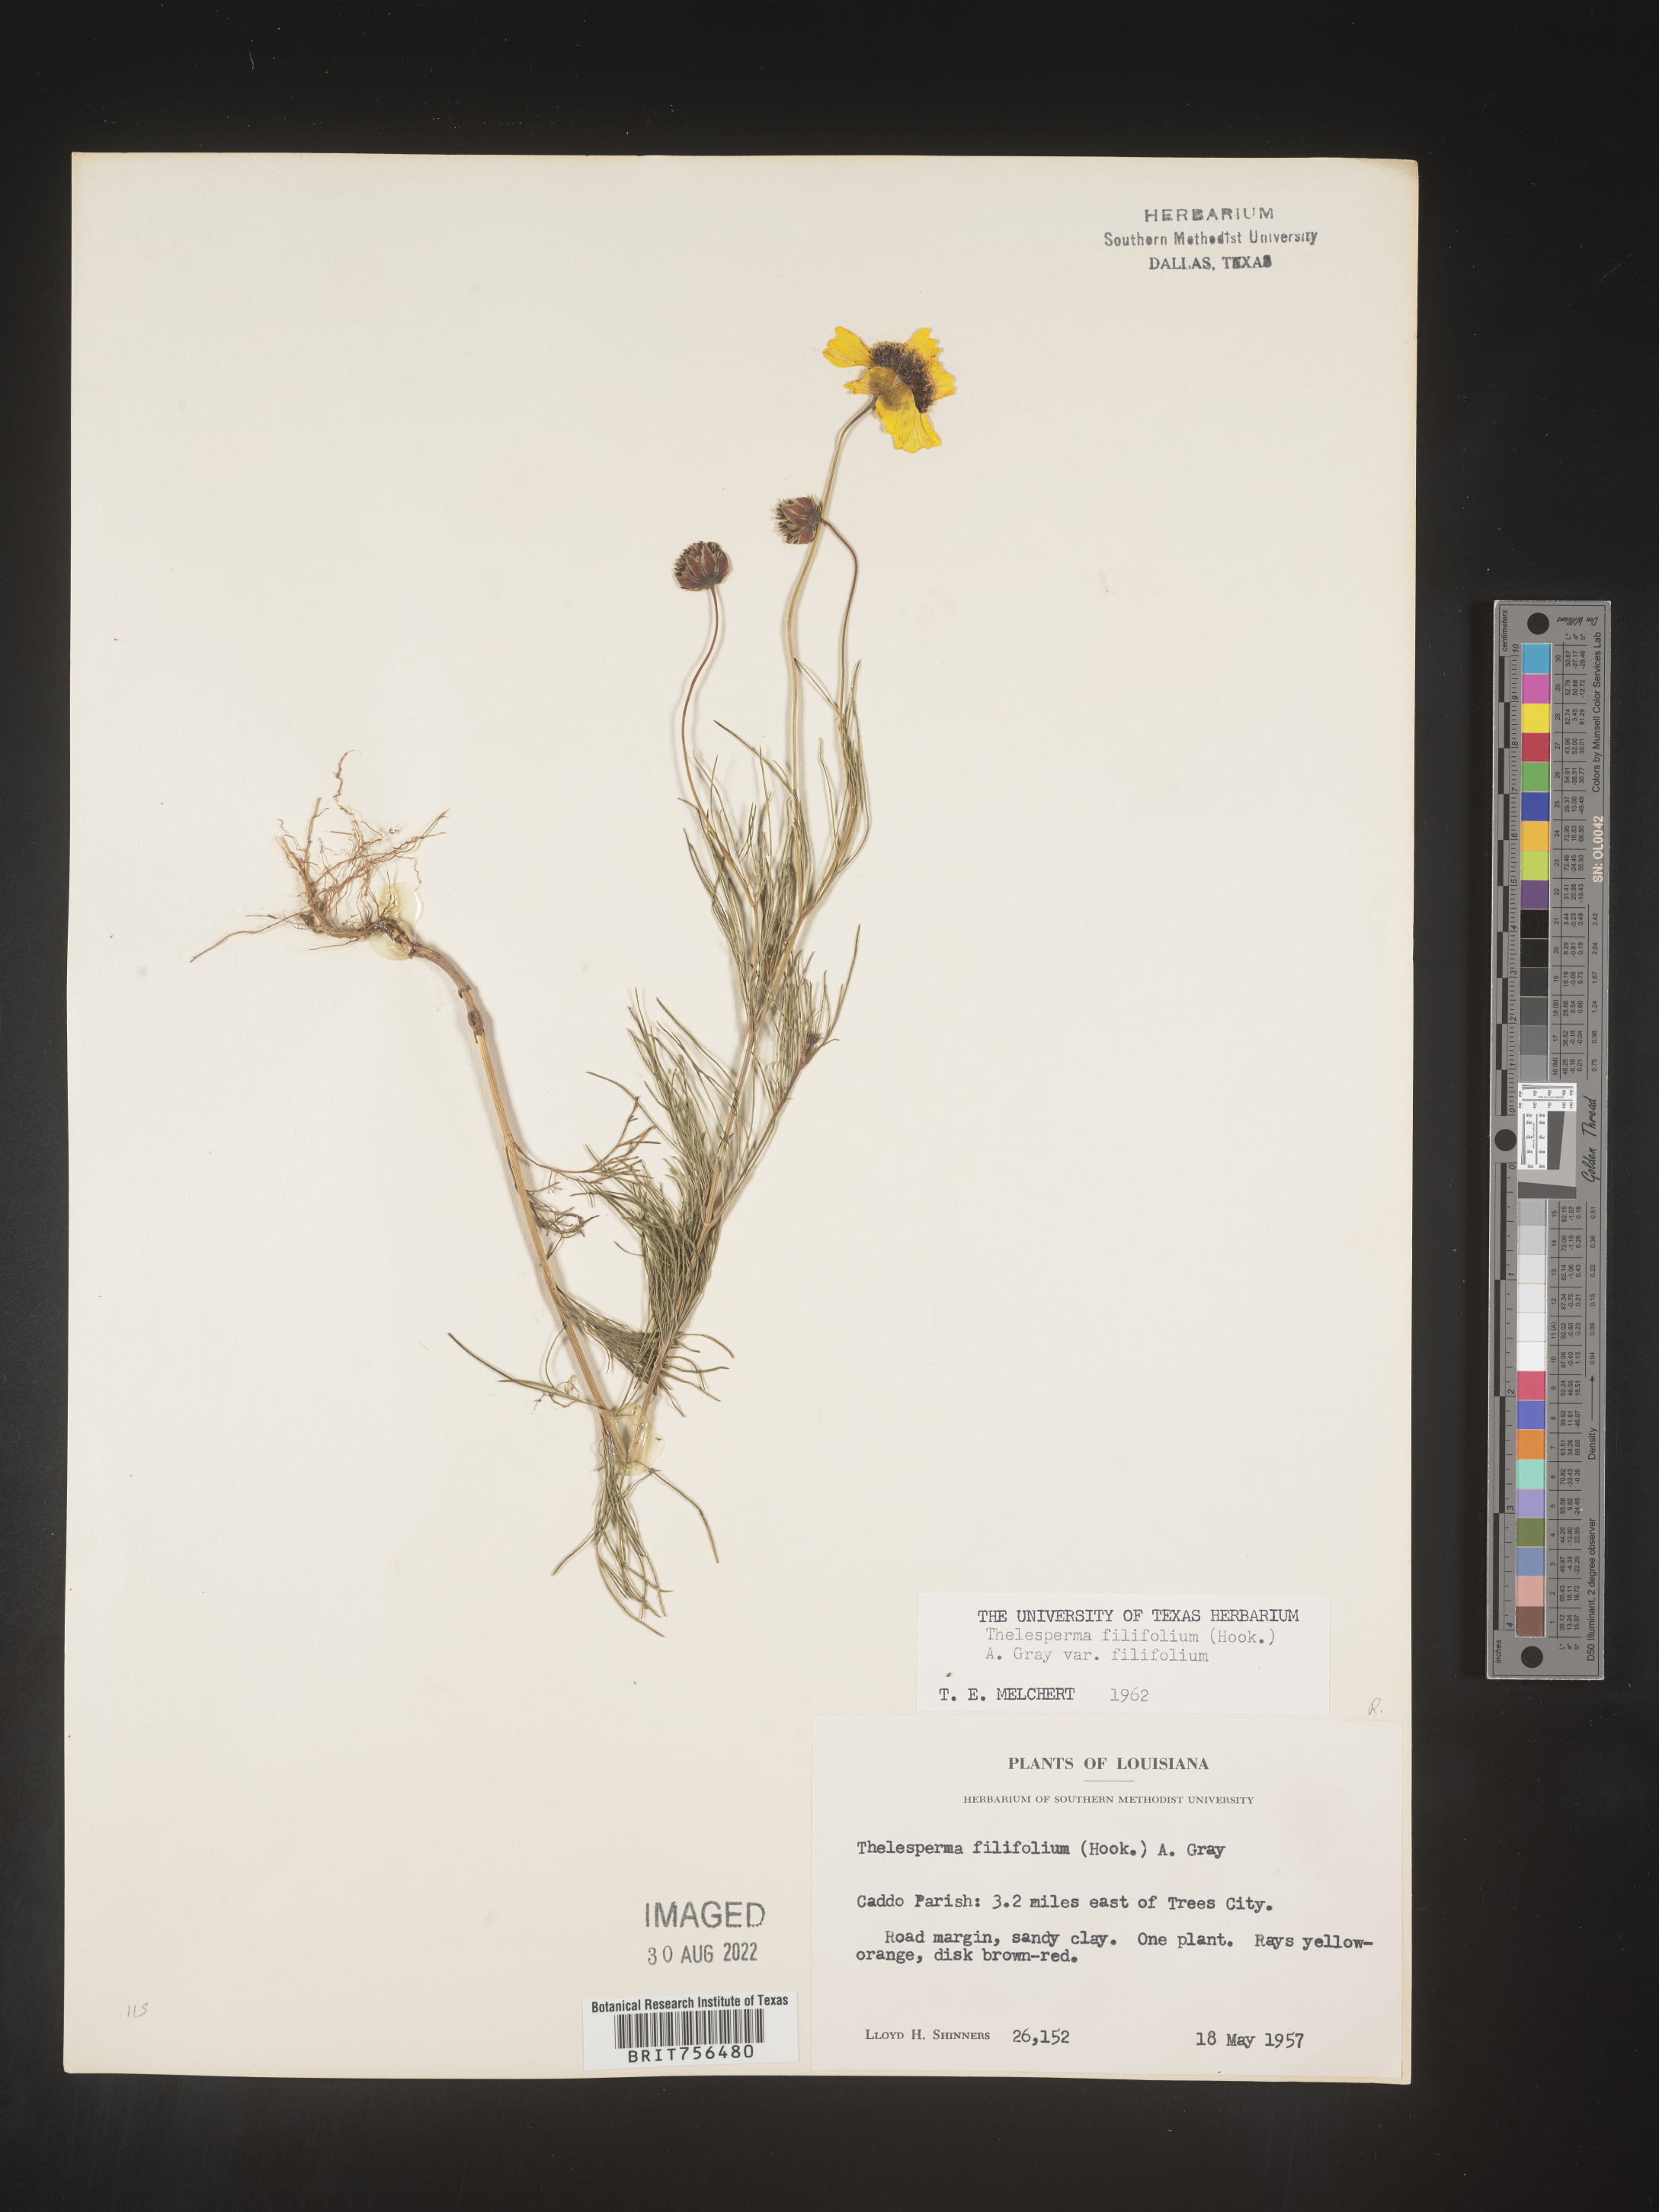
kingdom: Plantae
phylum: Tracheophyta
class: Magnoliopsida
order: Asterales
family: Asteraceae
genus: Thelesperma
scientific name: Thelesperma filifolium
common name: Stiff greenthread
